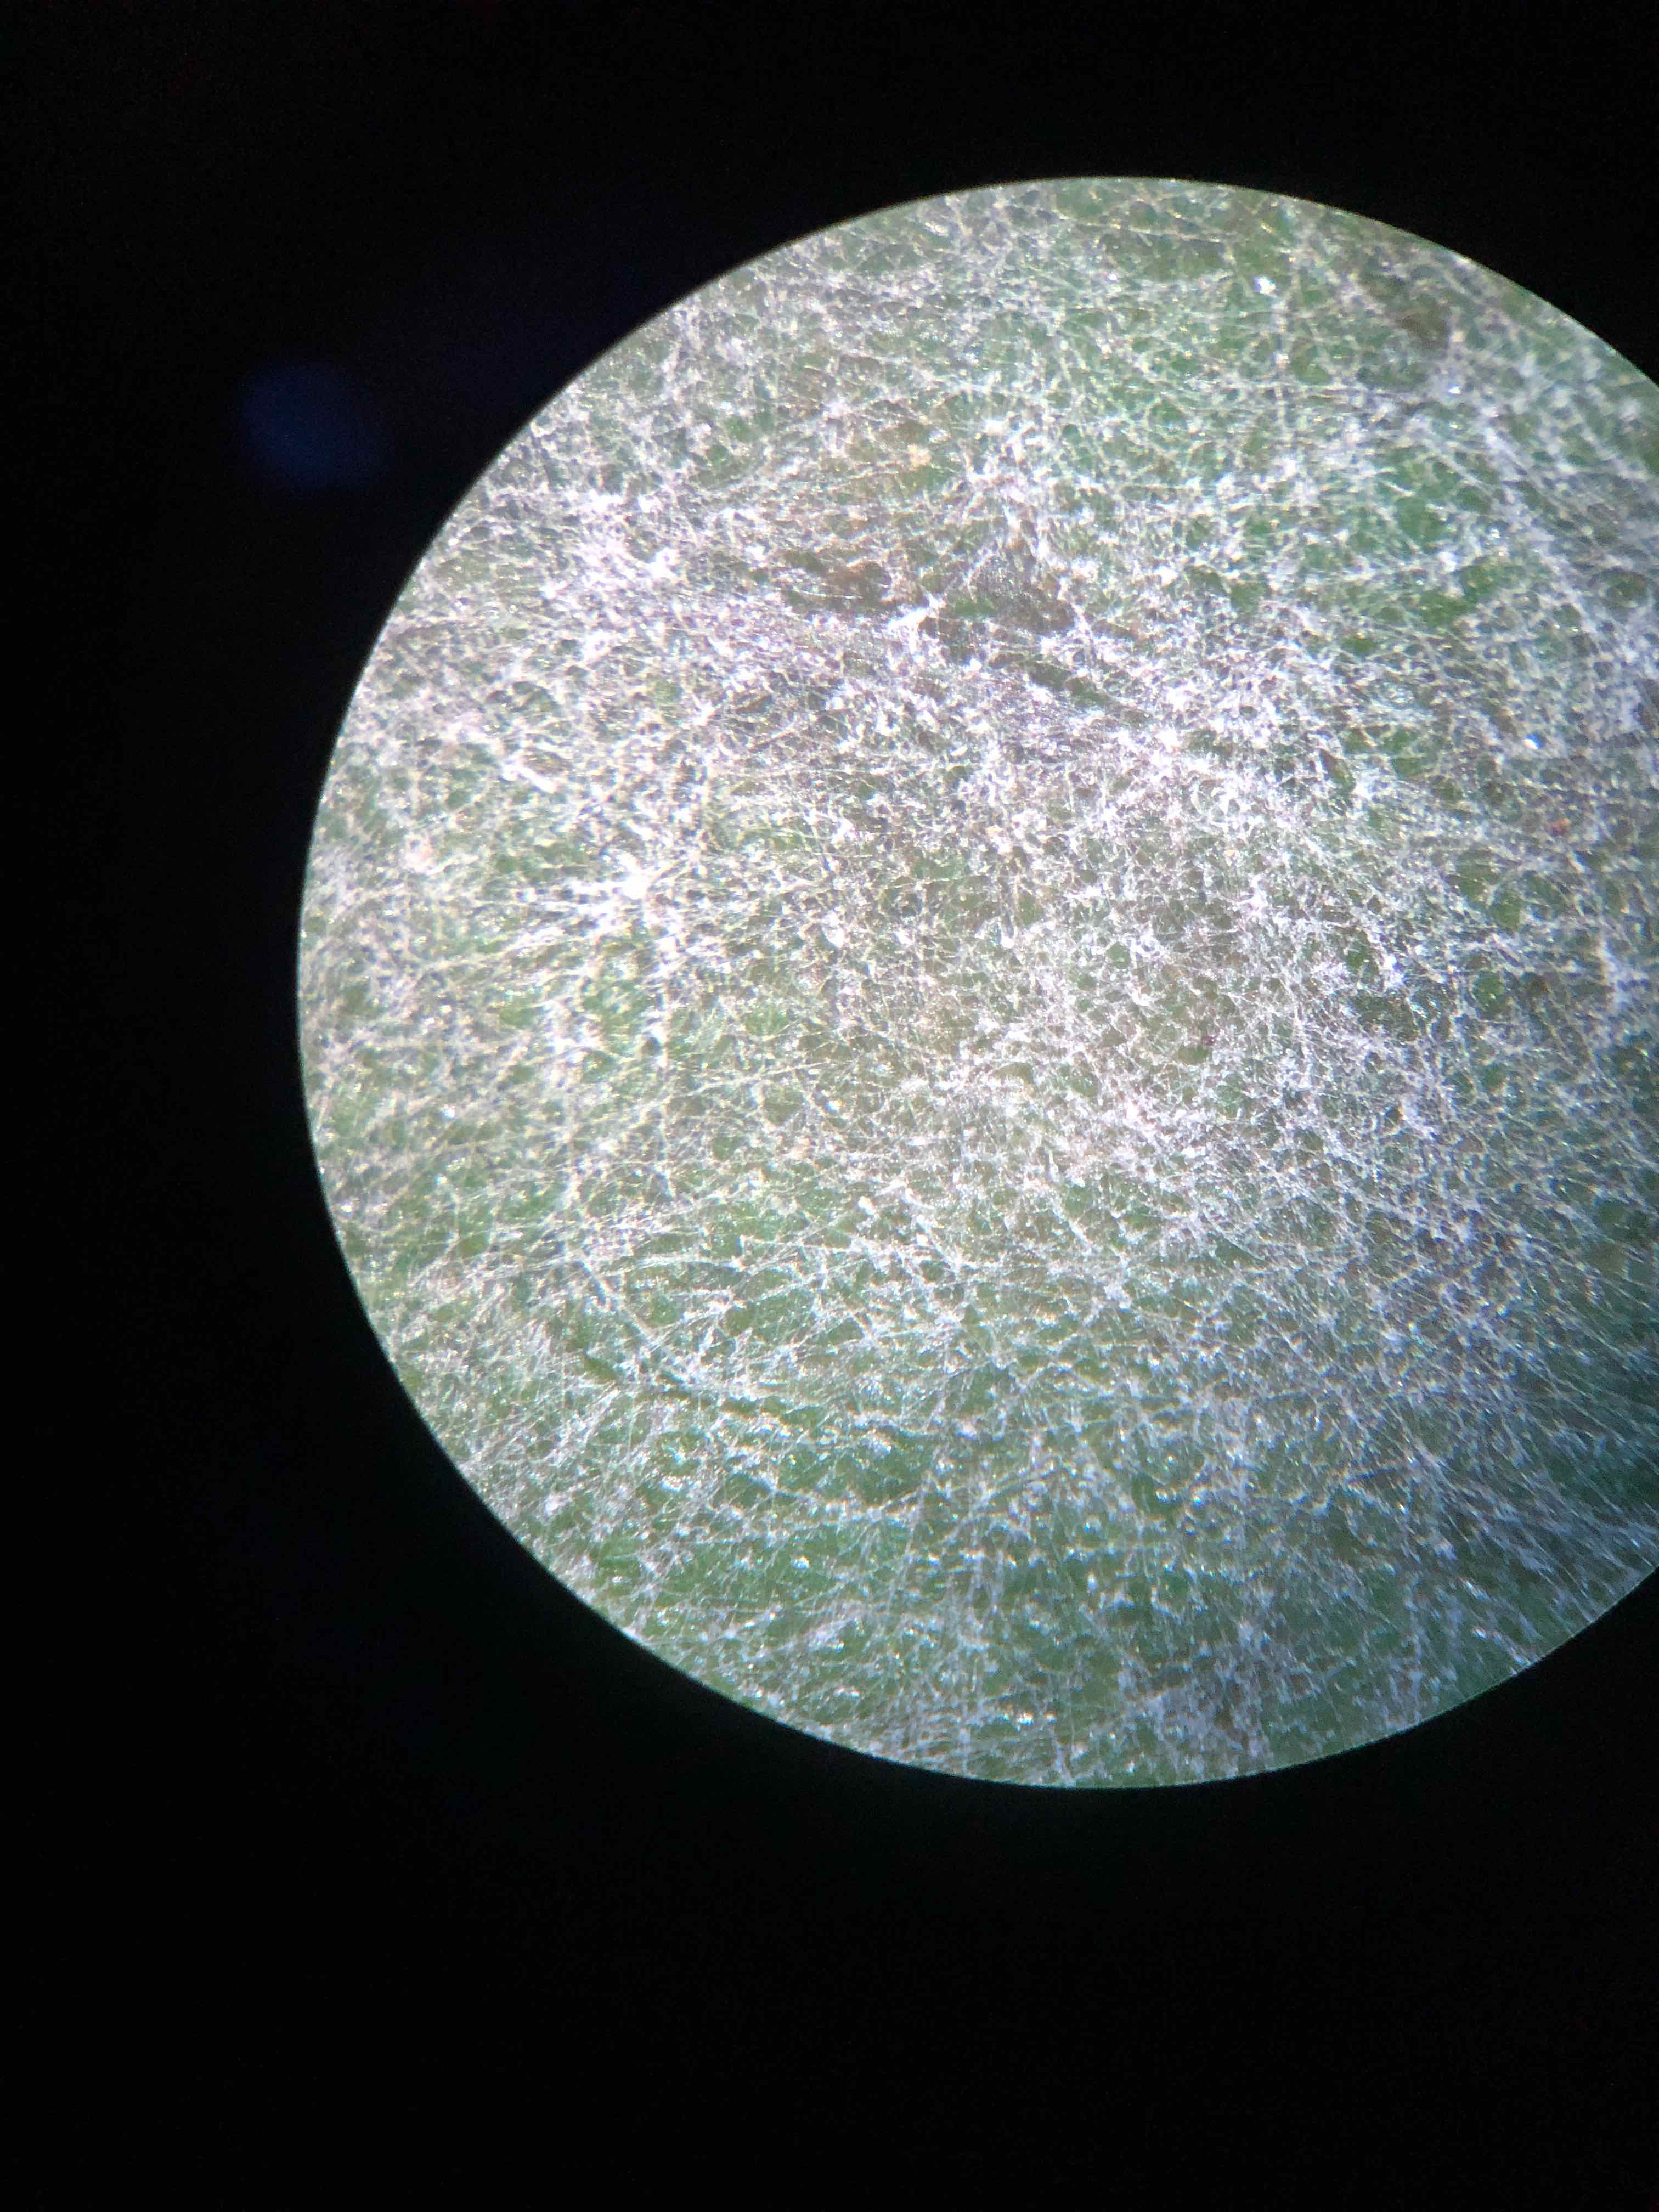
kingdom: Fungi
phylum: Ascomycota
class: Leotiomycetes
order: Helotiales
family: Erysiphaceae
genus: Erysiphe
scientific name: Erysiphe lonicerae
